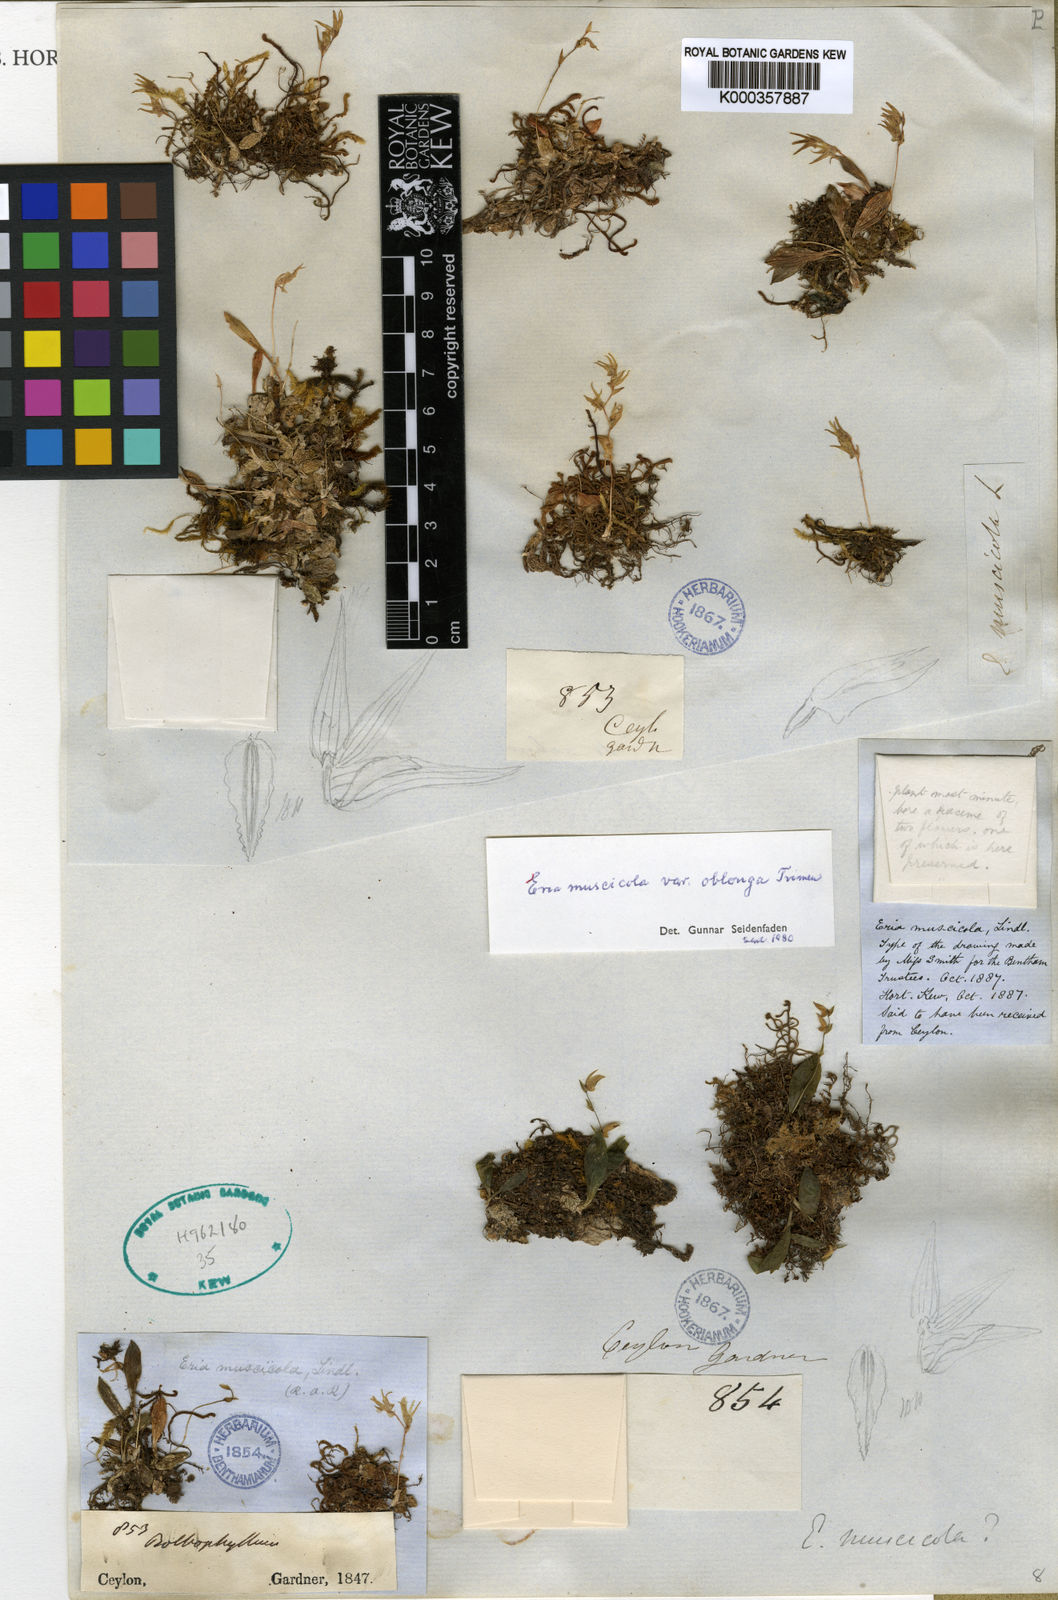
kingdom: Plantae
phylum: Tracheophyta
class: Liliopsida
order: Asparagales
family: Orchidaceae
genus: Porpax
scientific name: Porpax parviflorum
